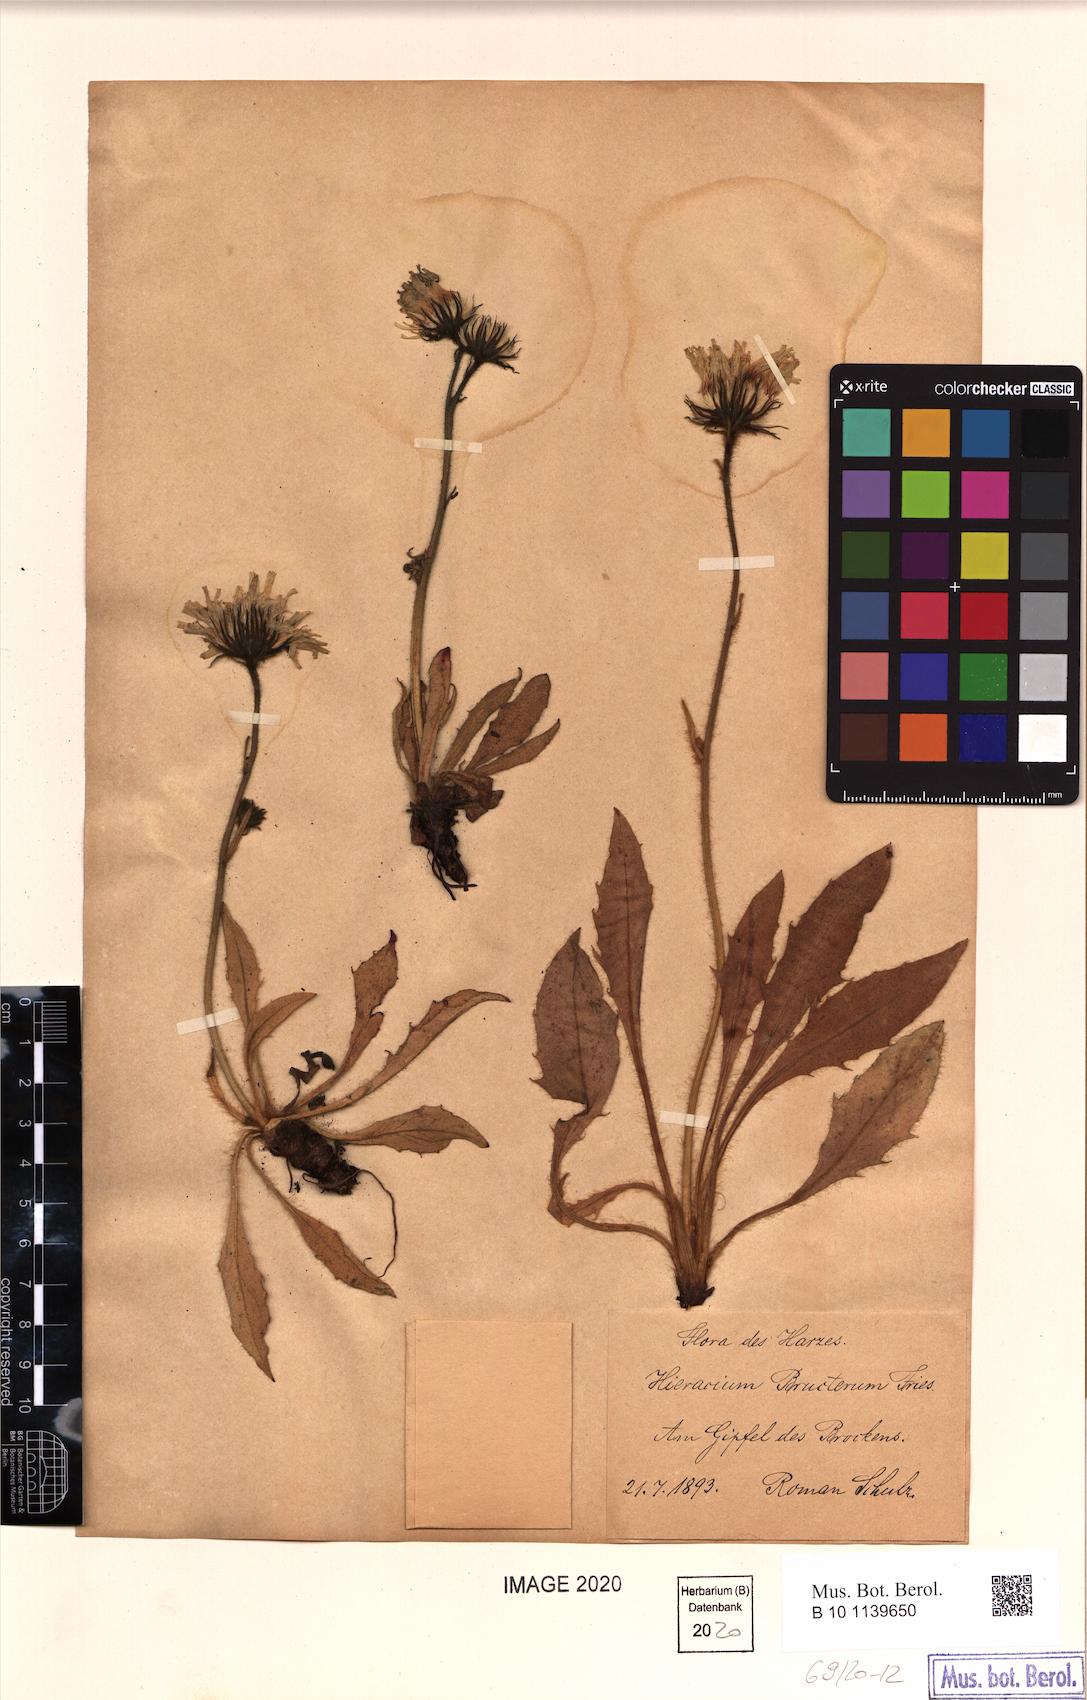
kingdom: Plantae
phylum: Tracheophyta
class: Magnoliopsida
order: Asterales
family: Asteraceae
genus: Hieracium
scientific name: Hieracium nigrescens
